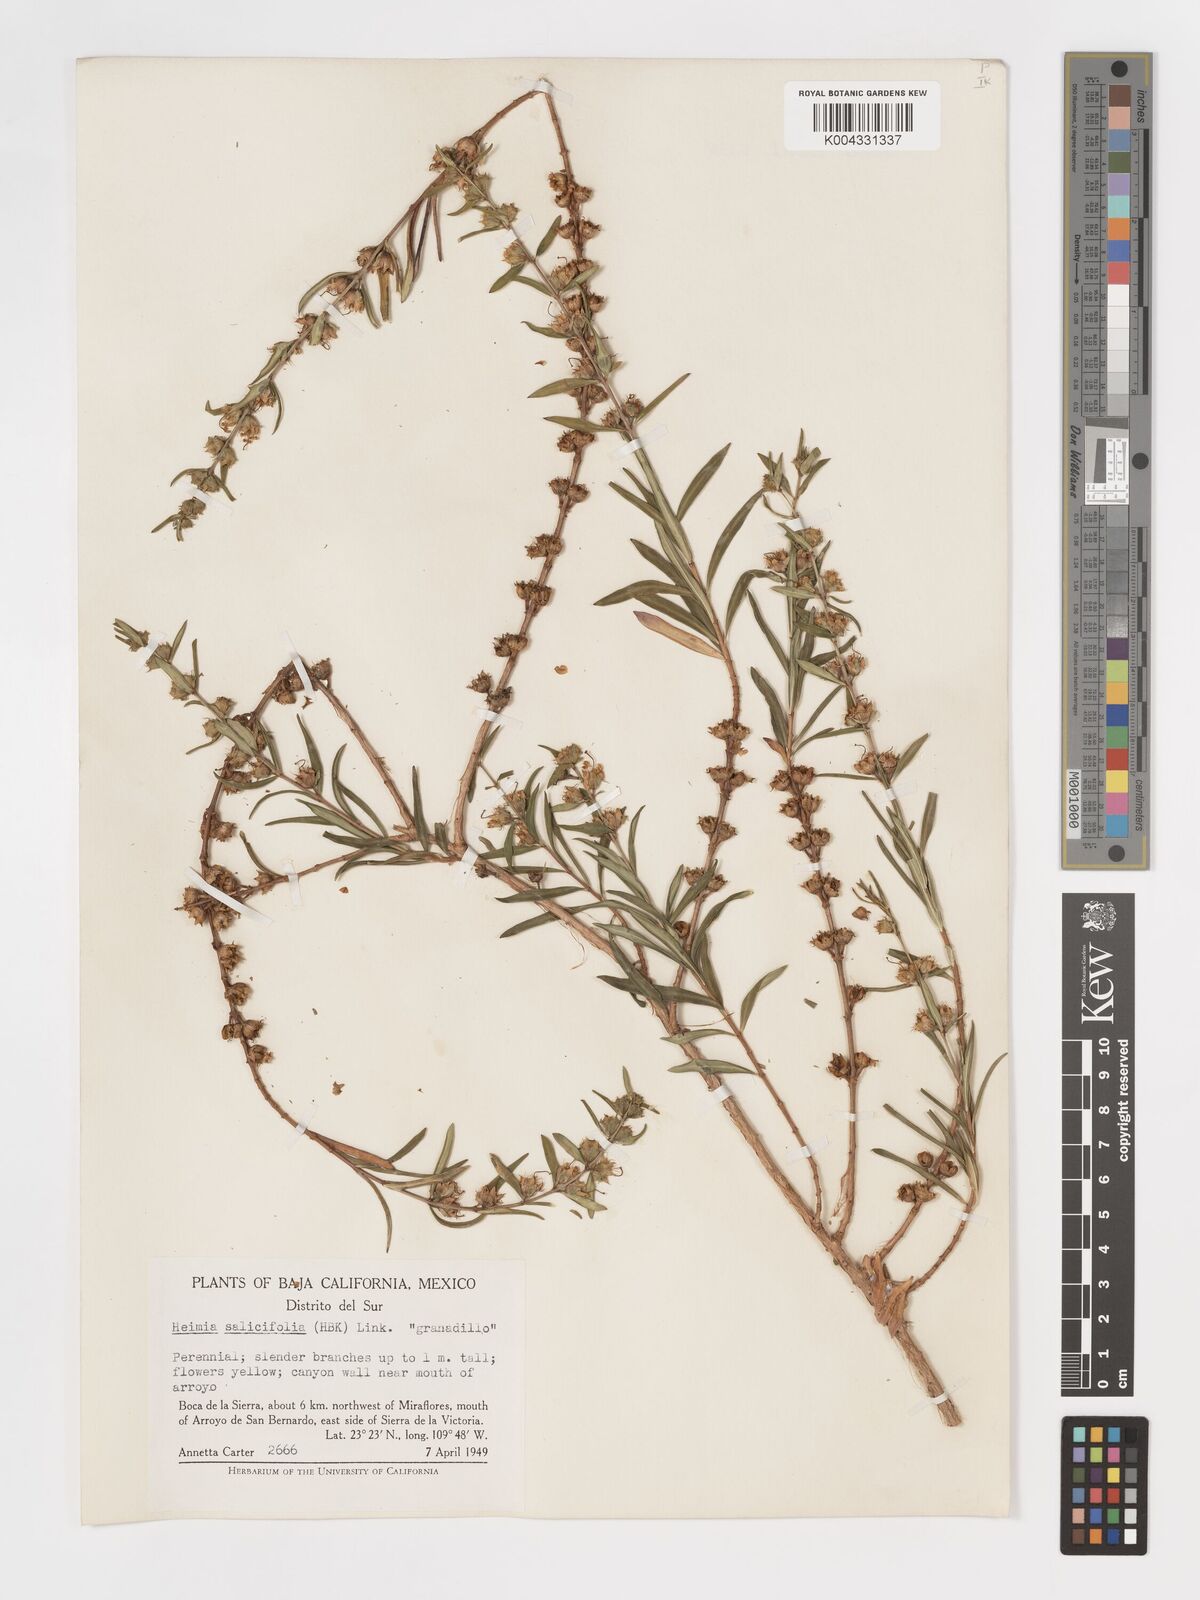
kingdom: Plantae
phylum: Tracheophyta
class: Magnoliopsida
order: Myrtales
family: Lythraceae
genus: Heimia
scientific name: Heimia salicifolia
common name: Willow-leaf heimia
